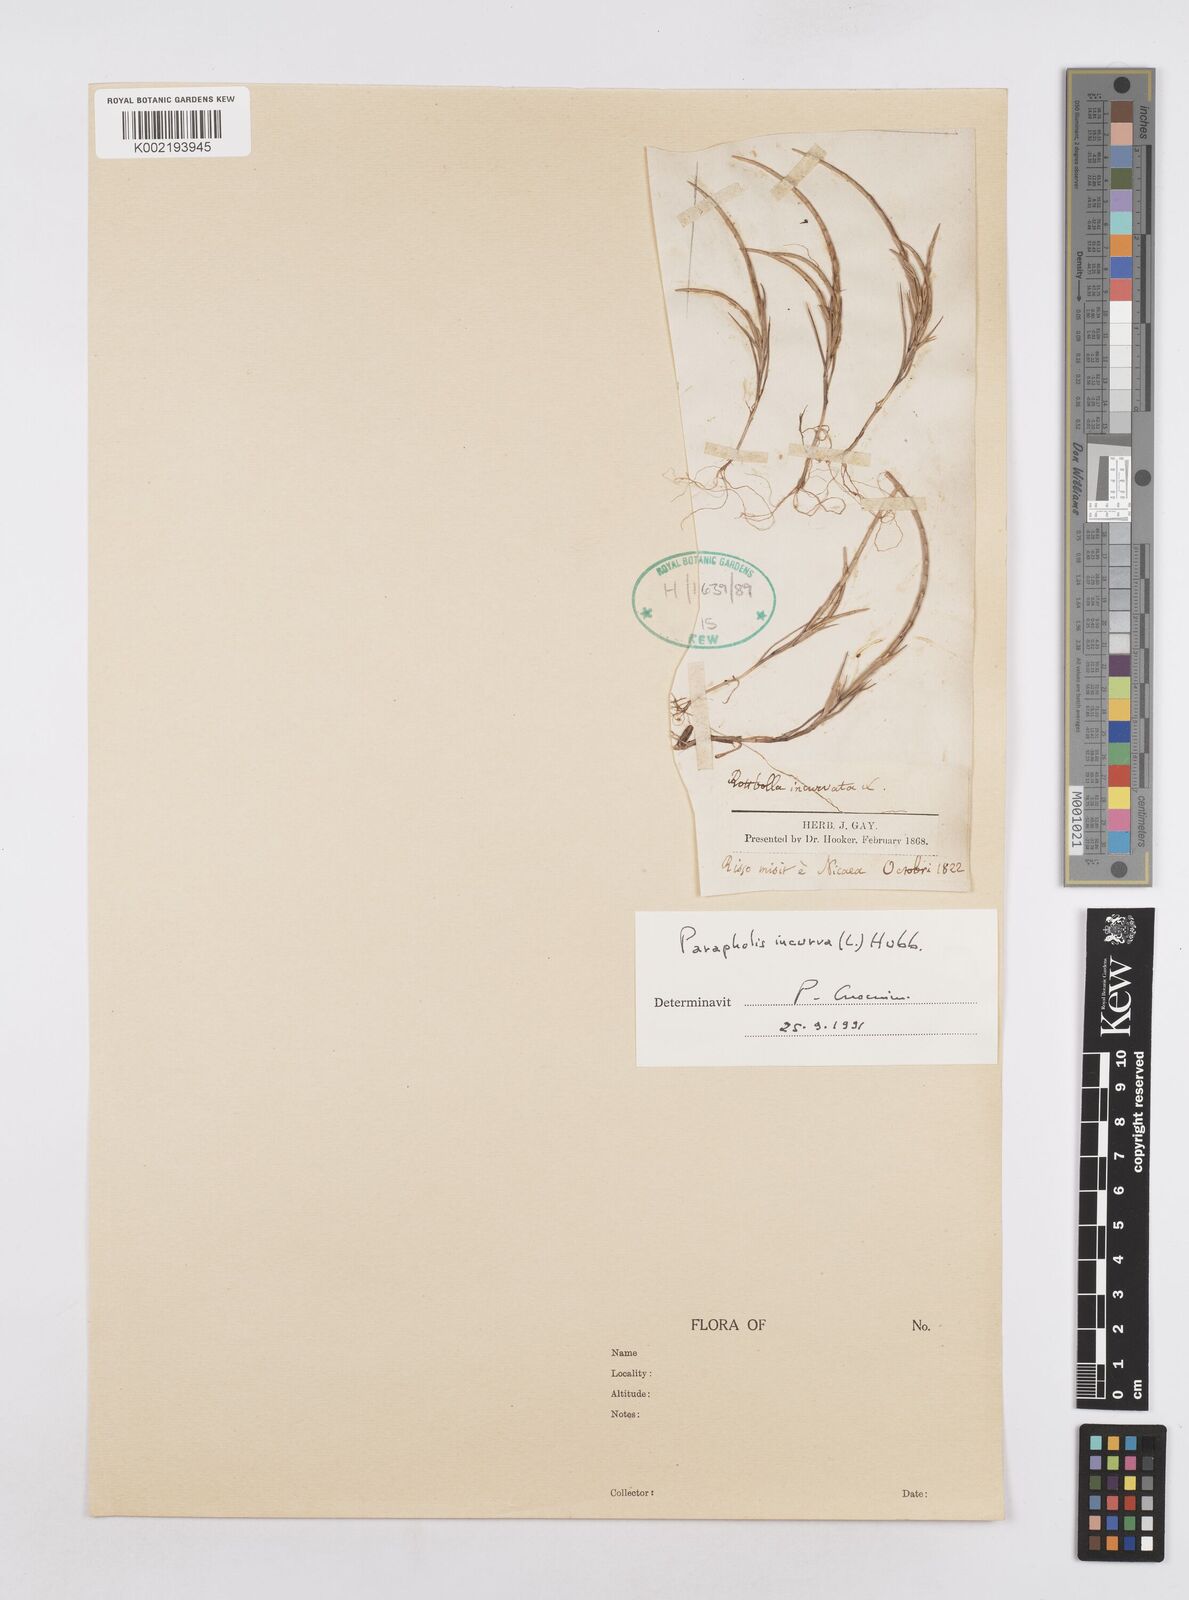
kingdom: Plantae
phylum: Tracheophyta
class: Liliopsida
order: Poales
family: Poaceae
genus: Parapholis
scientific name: Parapholis incurva
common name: Curved sicklegrass
